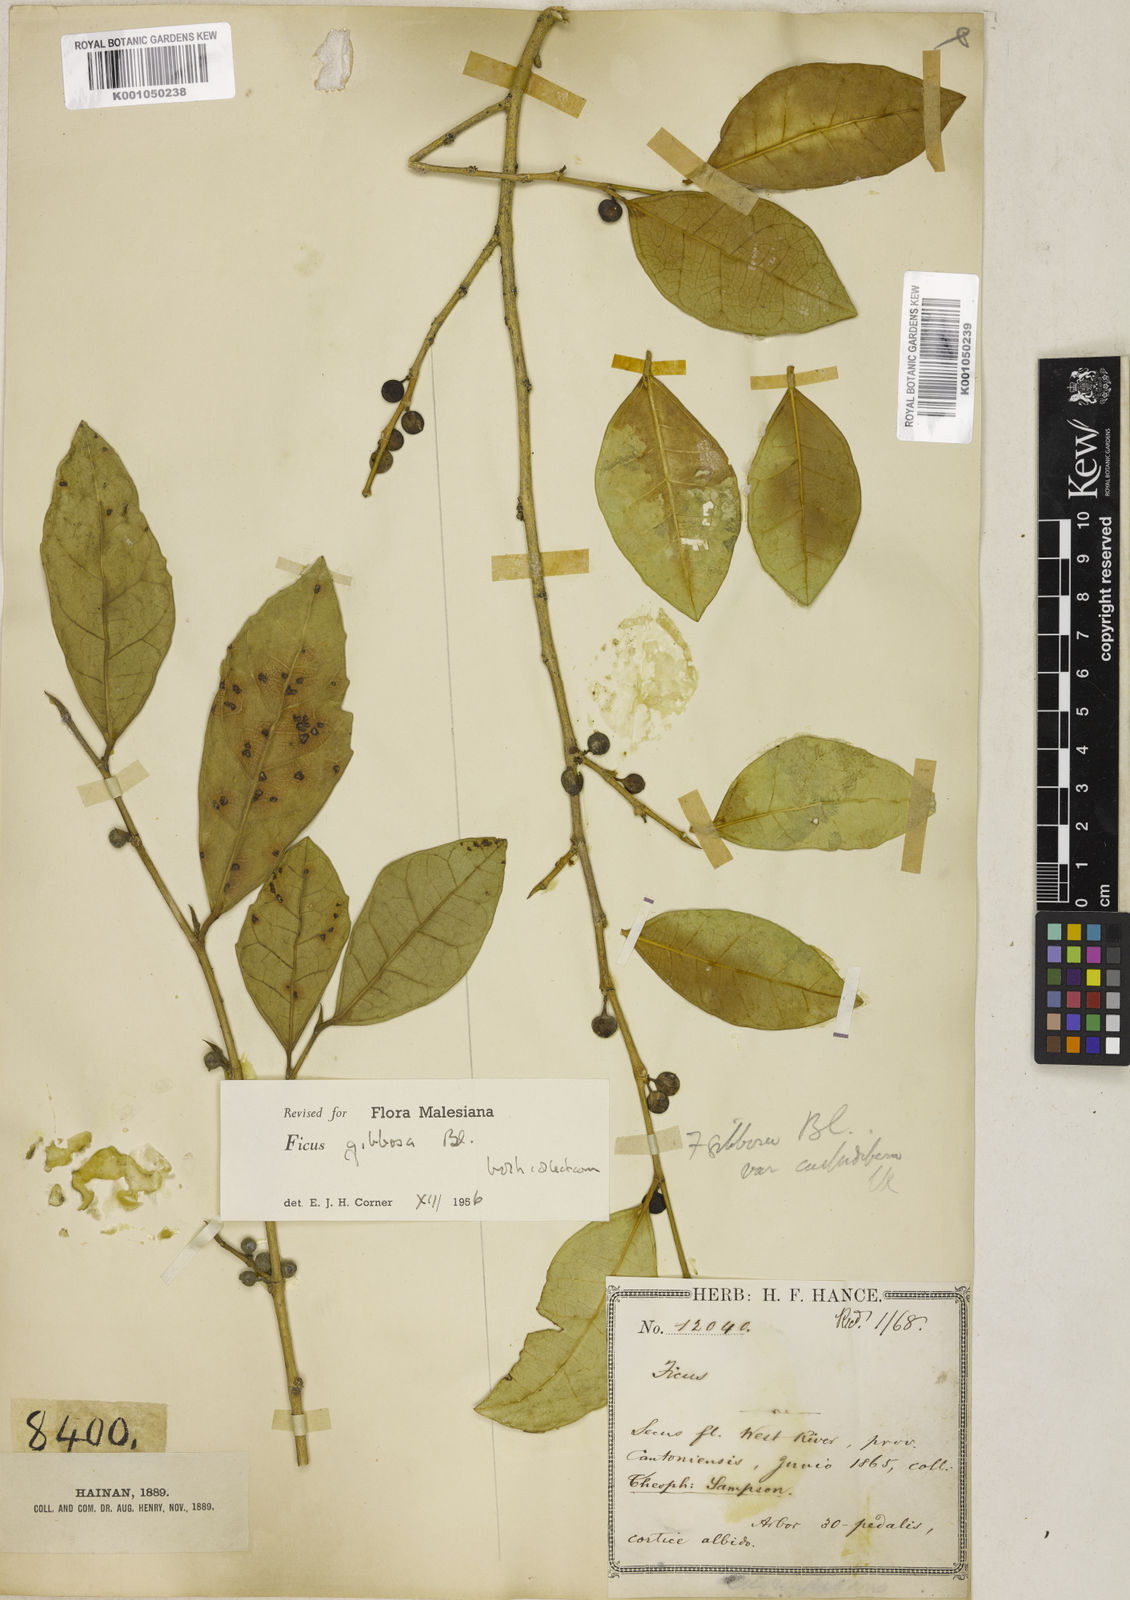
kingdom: Plantae
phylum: Tracheophyta
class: Magnoliopsida
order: Rosales
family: Moraceae
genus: Ficus
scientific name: Ficus tinctoria
